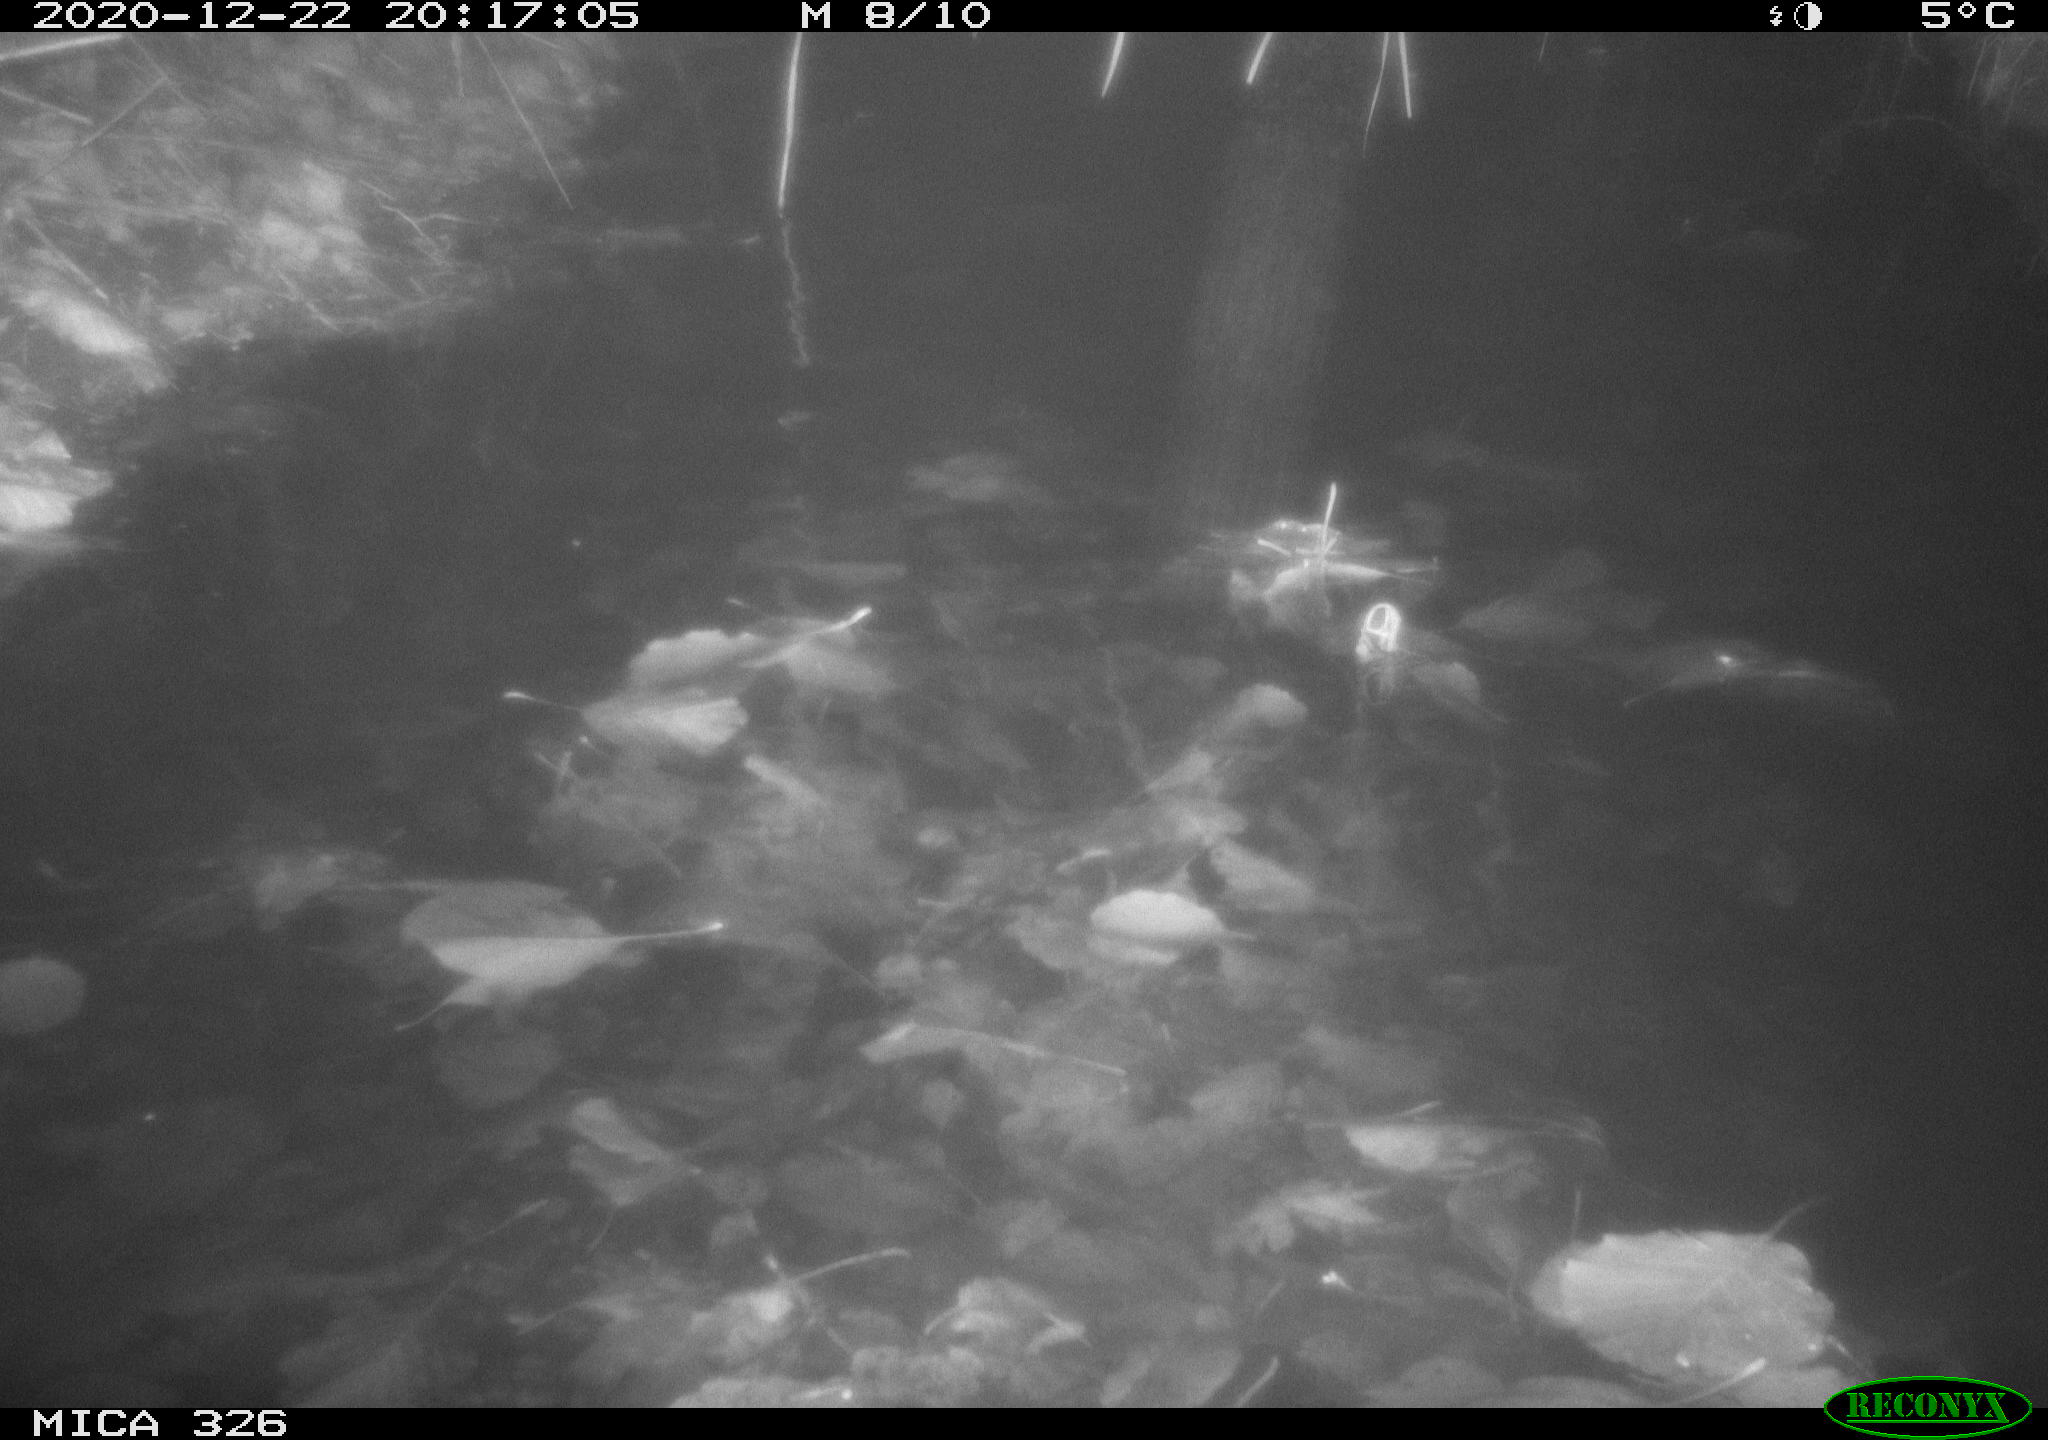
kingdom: Animalia
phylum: Chordata
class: Mammalia
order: Rodentia
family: Cricetidae
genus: Ondatra
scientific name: Ondatra zibethicus
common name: Muskrat
